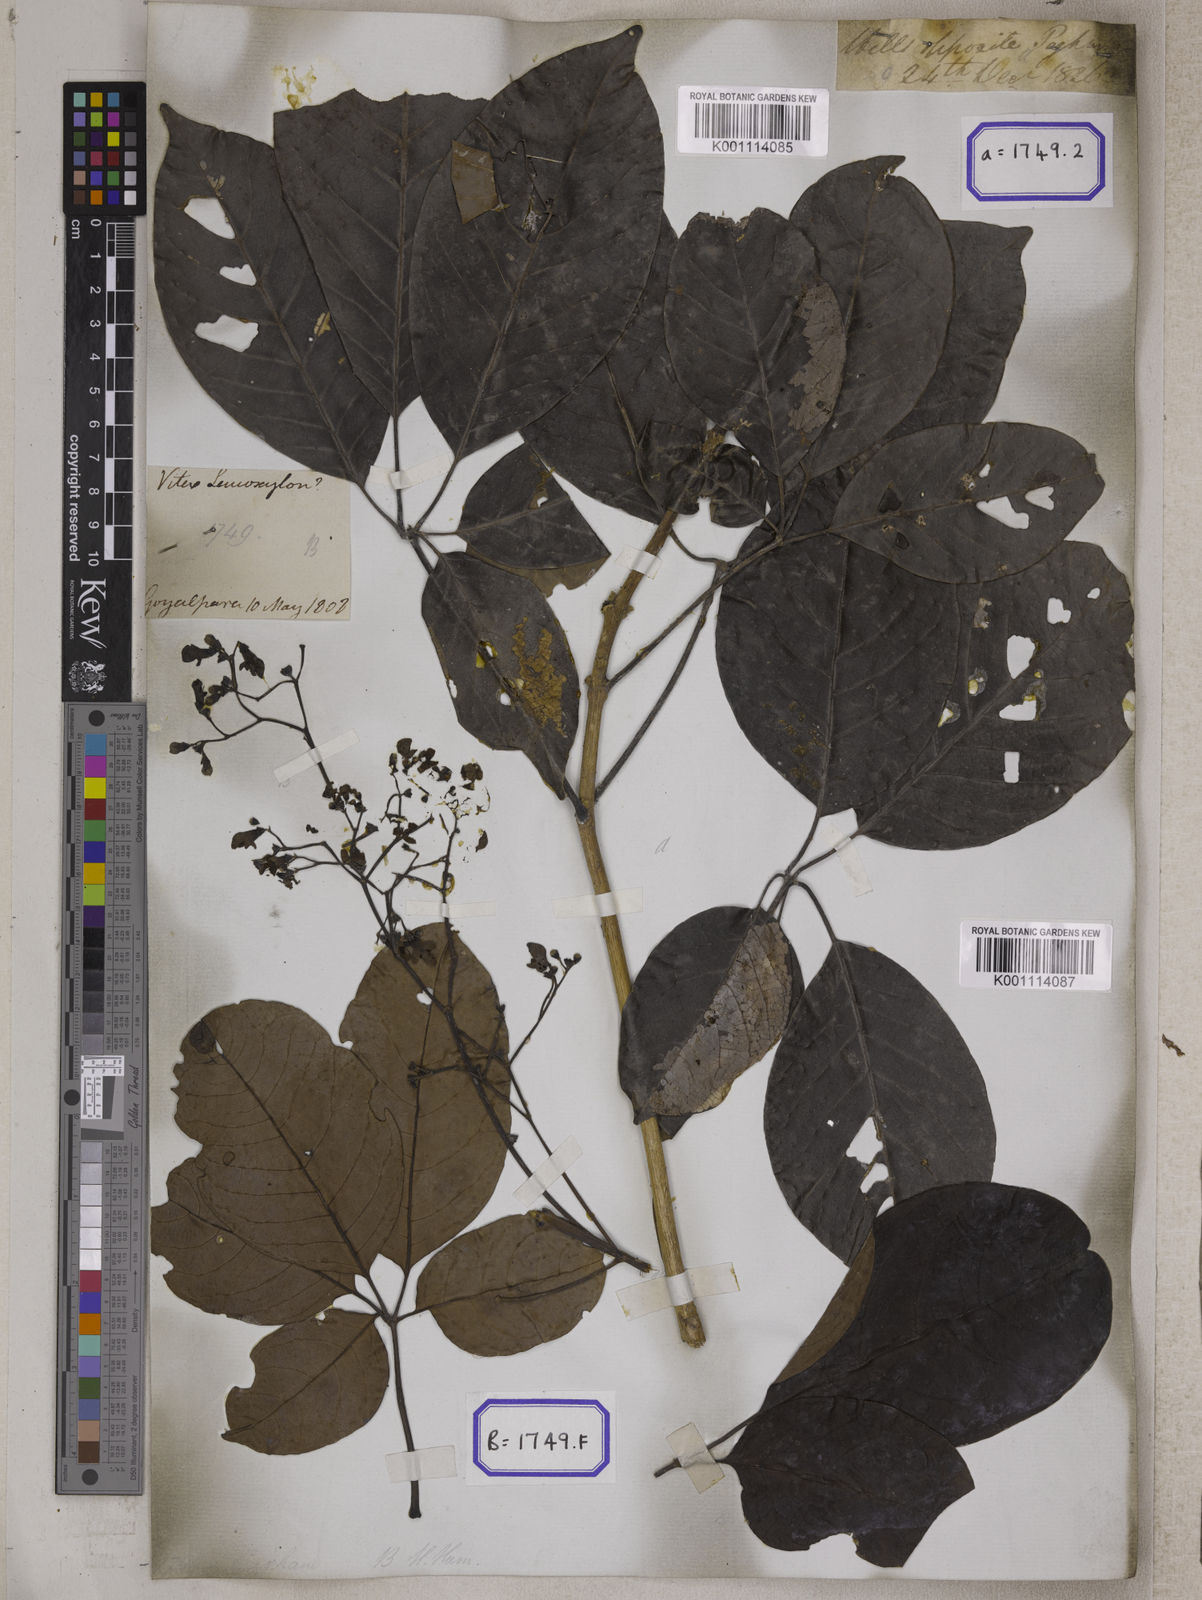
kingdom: Plantae
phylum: Tracheophyta
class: Magnoliopsida
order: Lamiales
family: Lamiaceae
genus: Vitex
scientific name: Vitex
